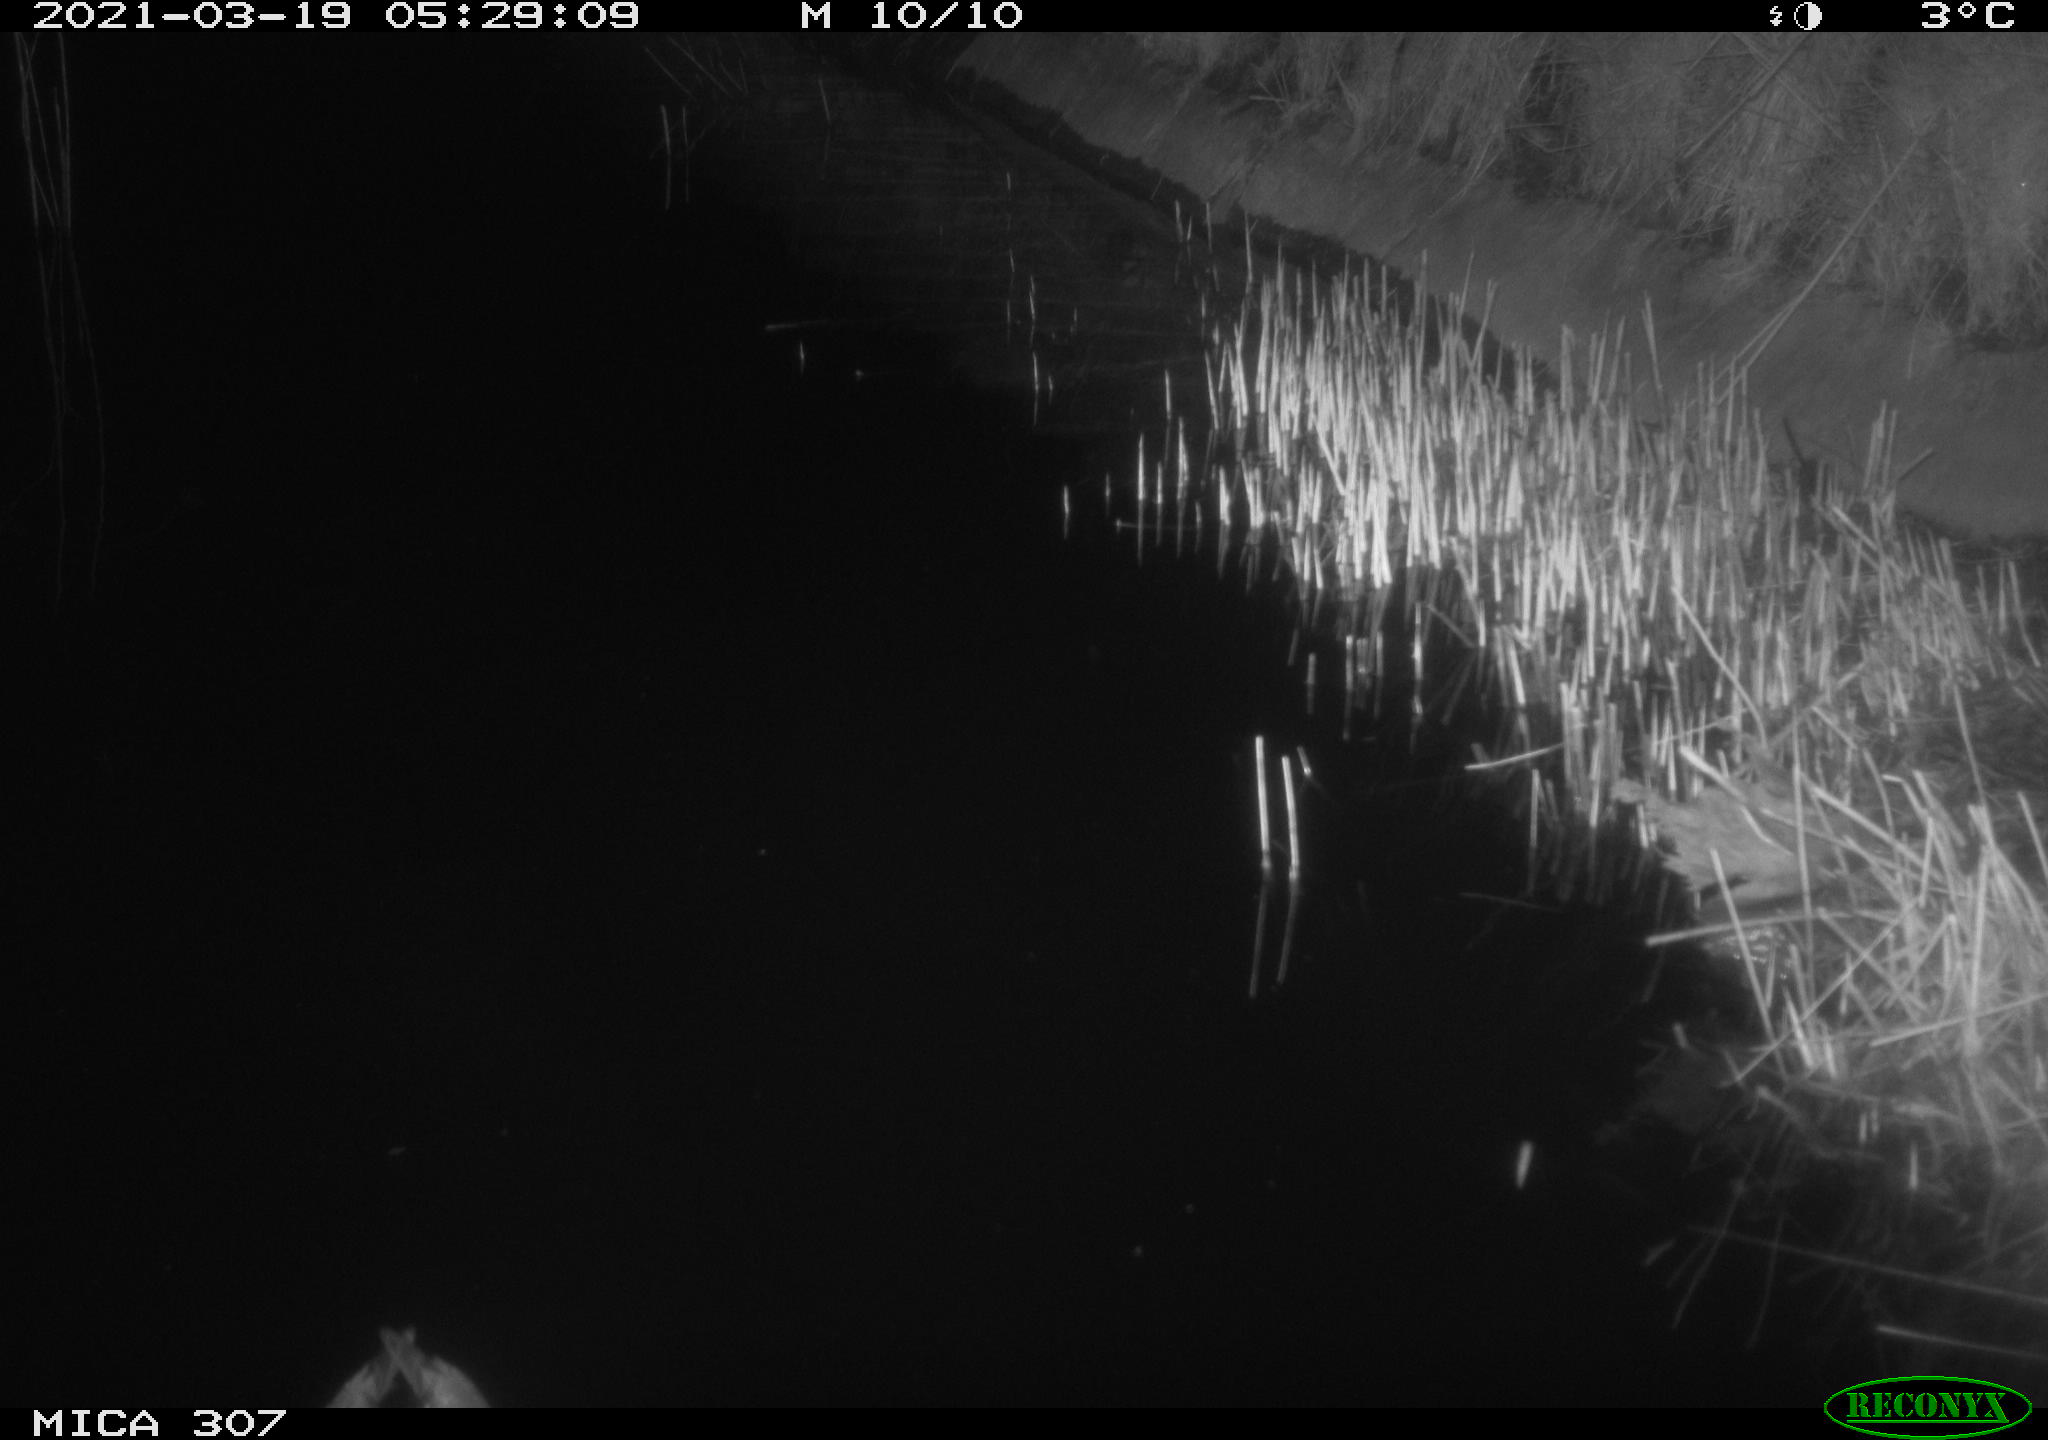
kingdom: Animalia
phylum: Chordata
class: Aves
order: Anseriformes
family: Anatidae
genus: Anas
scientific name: Anas platyrhynchos
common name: Mallard
